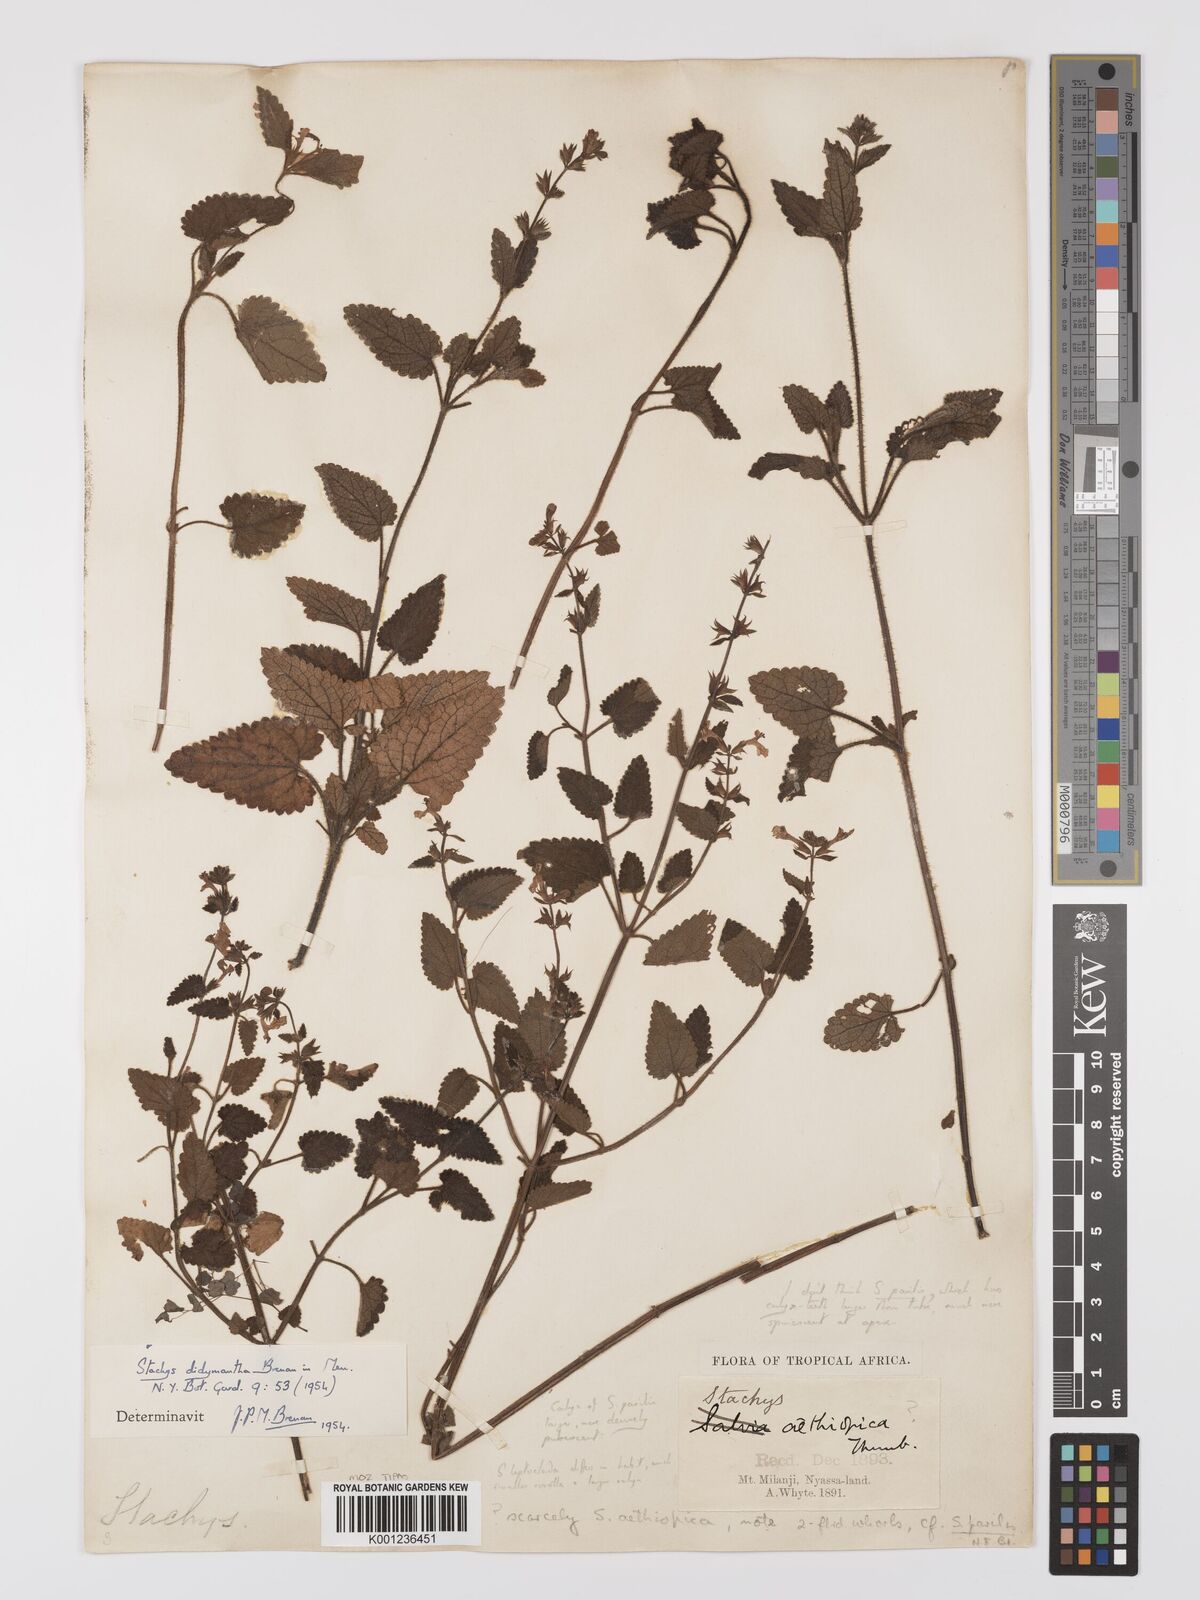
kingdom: Plantae
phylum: Tracheophyta
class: Magnoliopsida
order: Lamiales
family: Lamiaceae
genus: Stachys
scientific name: Stachys didymantha
